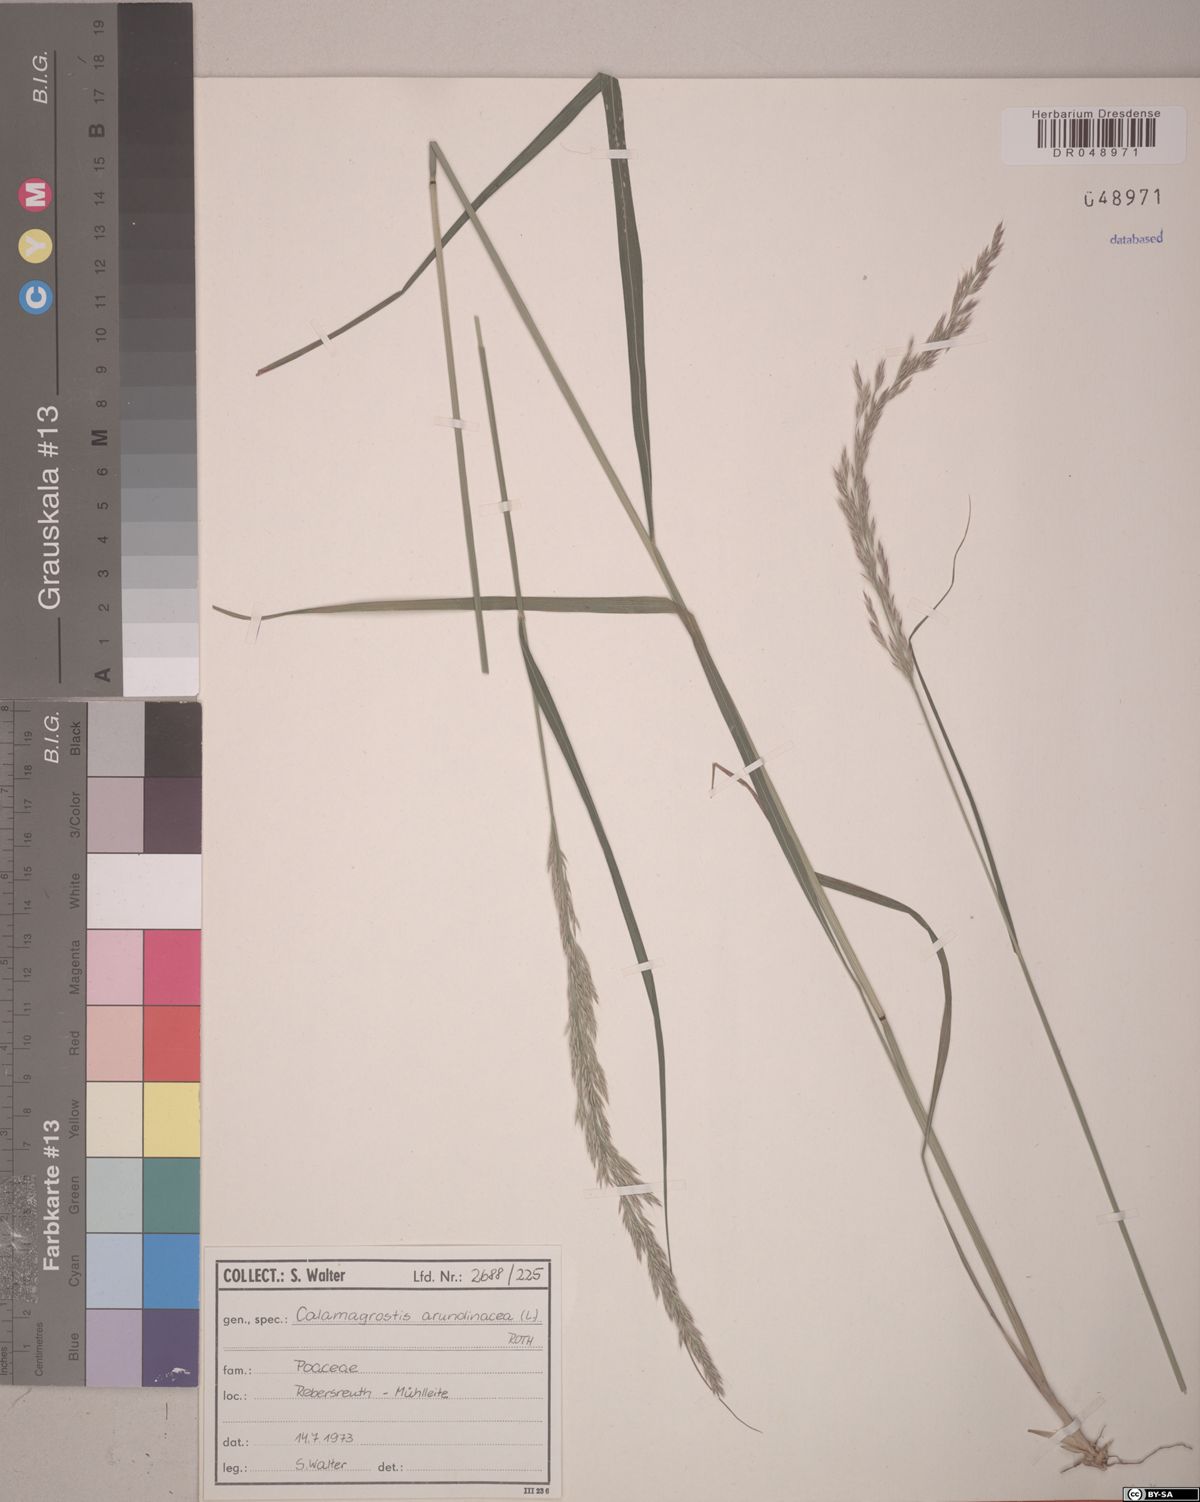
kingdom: Plantae
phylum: Tracheophyta
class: Liliopsida
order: Poales
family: Poaceae
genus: Calamagrostis
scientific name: Calamagrostis arundinacea
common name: Metskastik
